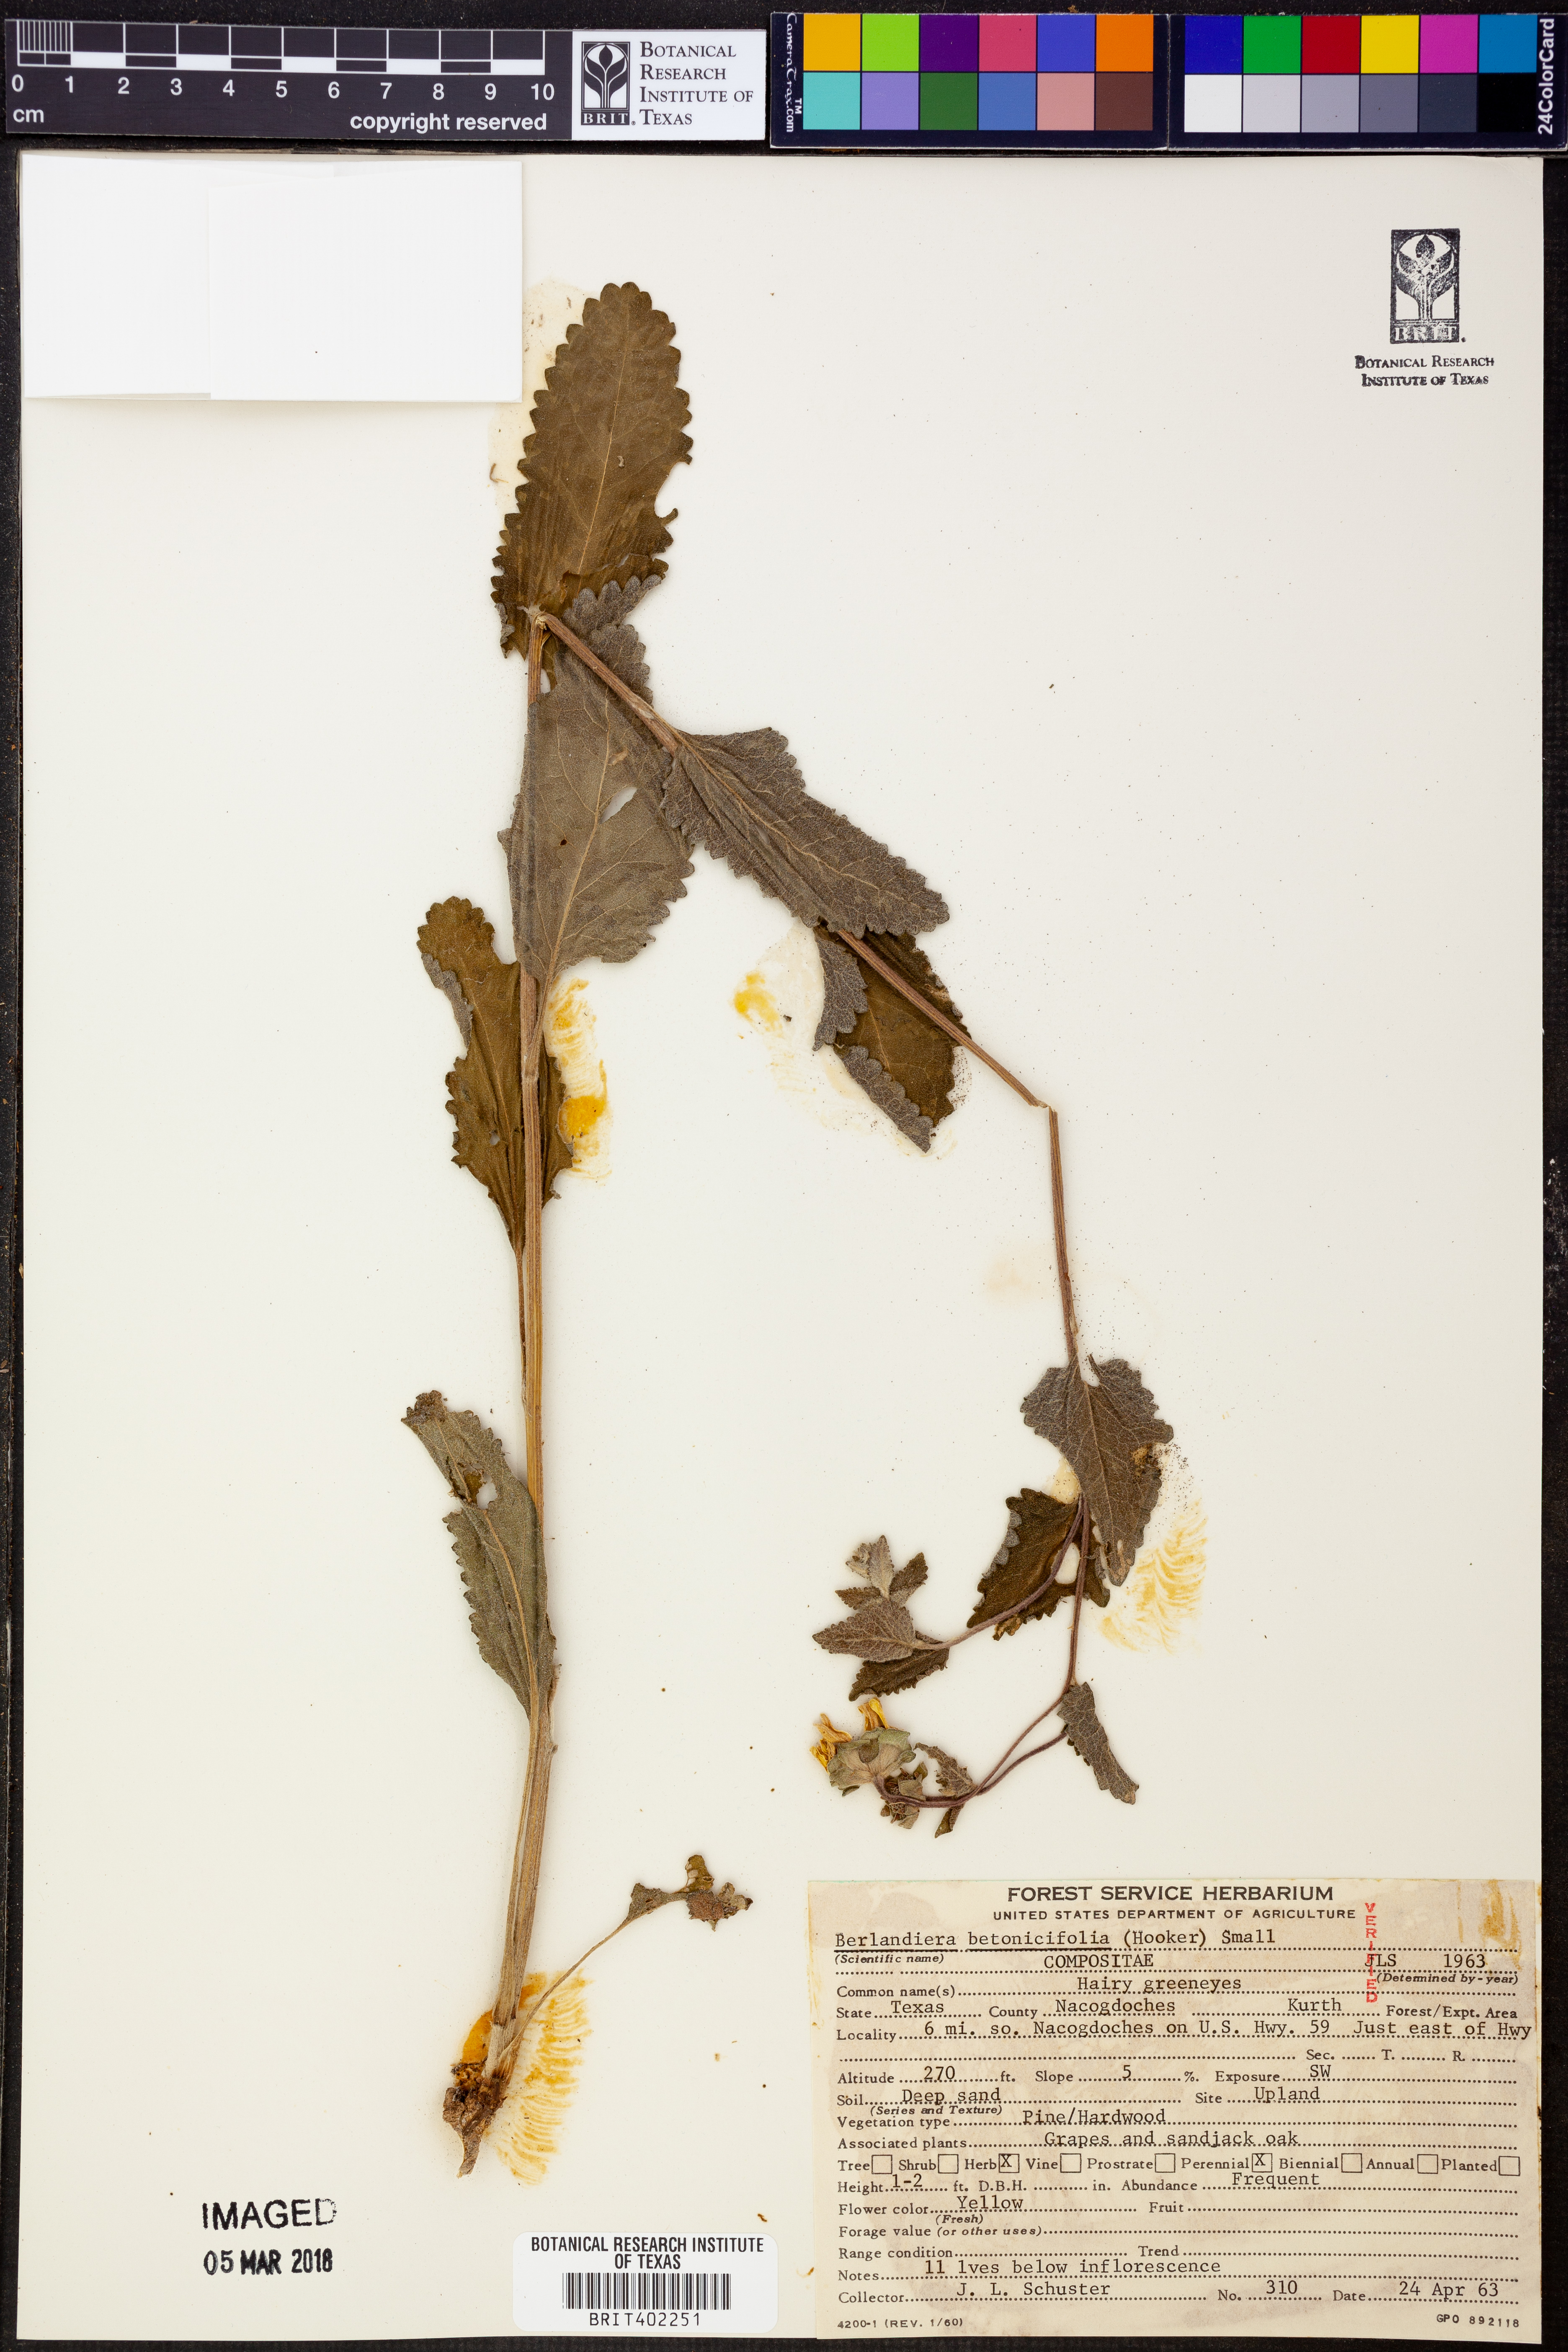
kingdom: Plantae
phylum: Tracheophyta
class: Magnoliopsida
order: Asterales
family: Asteraceae
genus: Berlandiera
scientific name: Berlandiera betonicifolia
